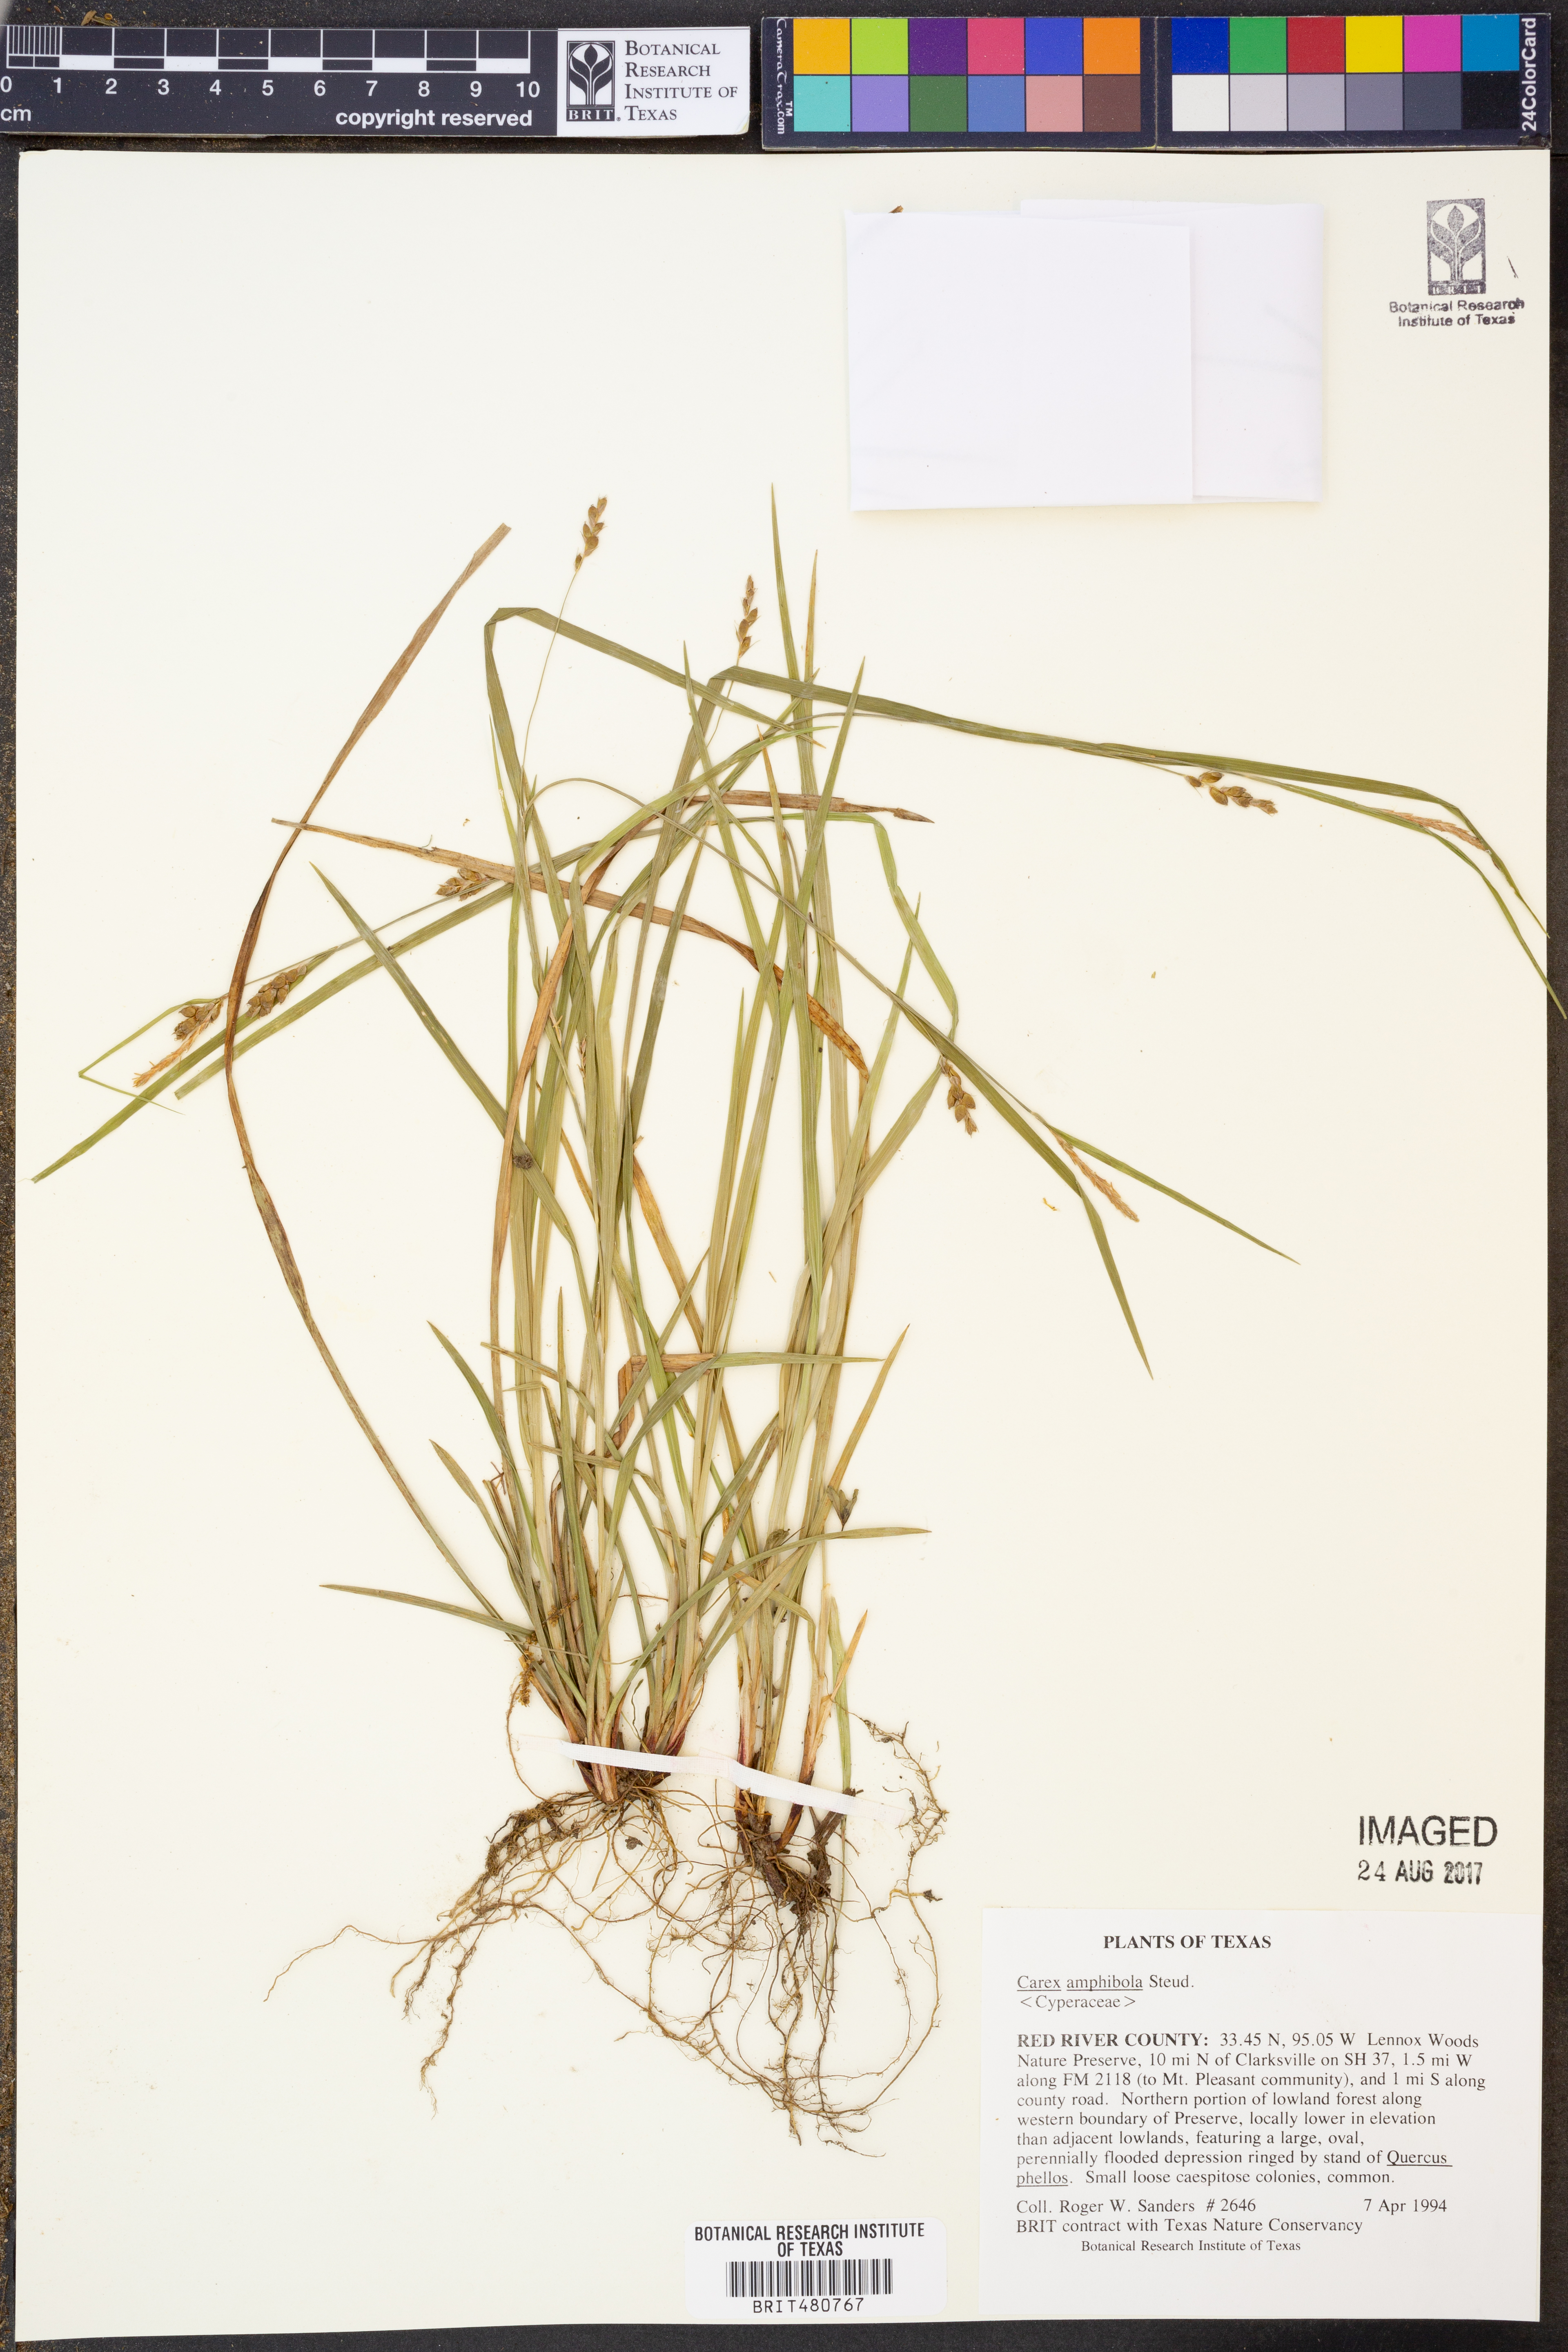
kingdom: Plantae
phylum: Tracheophyta
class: Liliopsida
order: Poales
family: Cyperaceae
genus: Carex
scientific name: Carex amphibola
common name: Amphibious sedge
